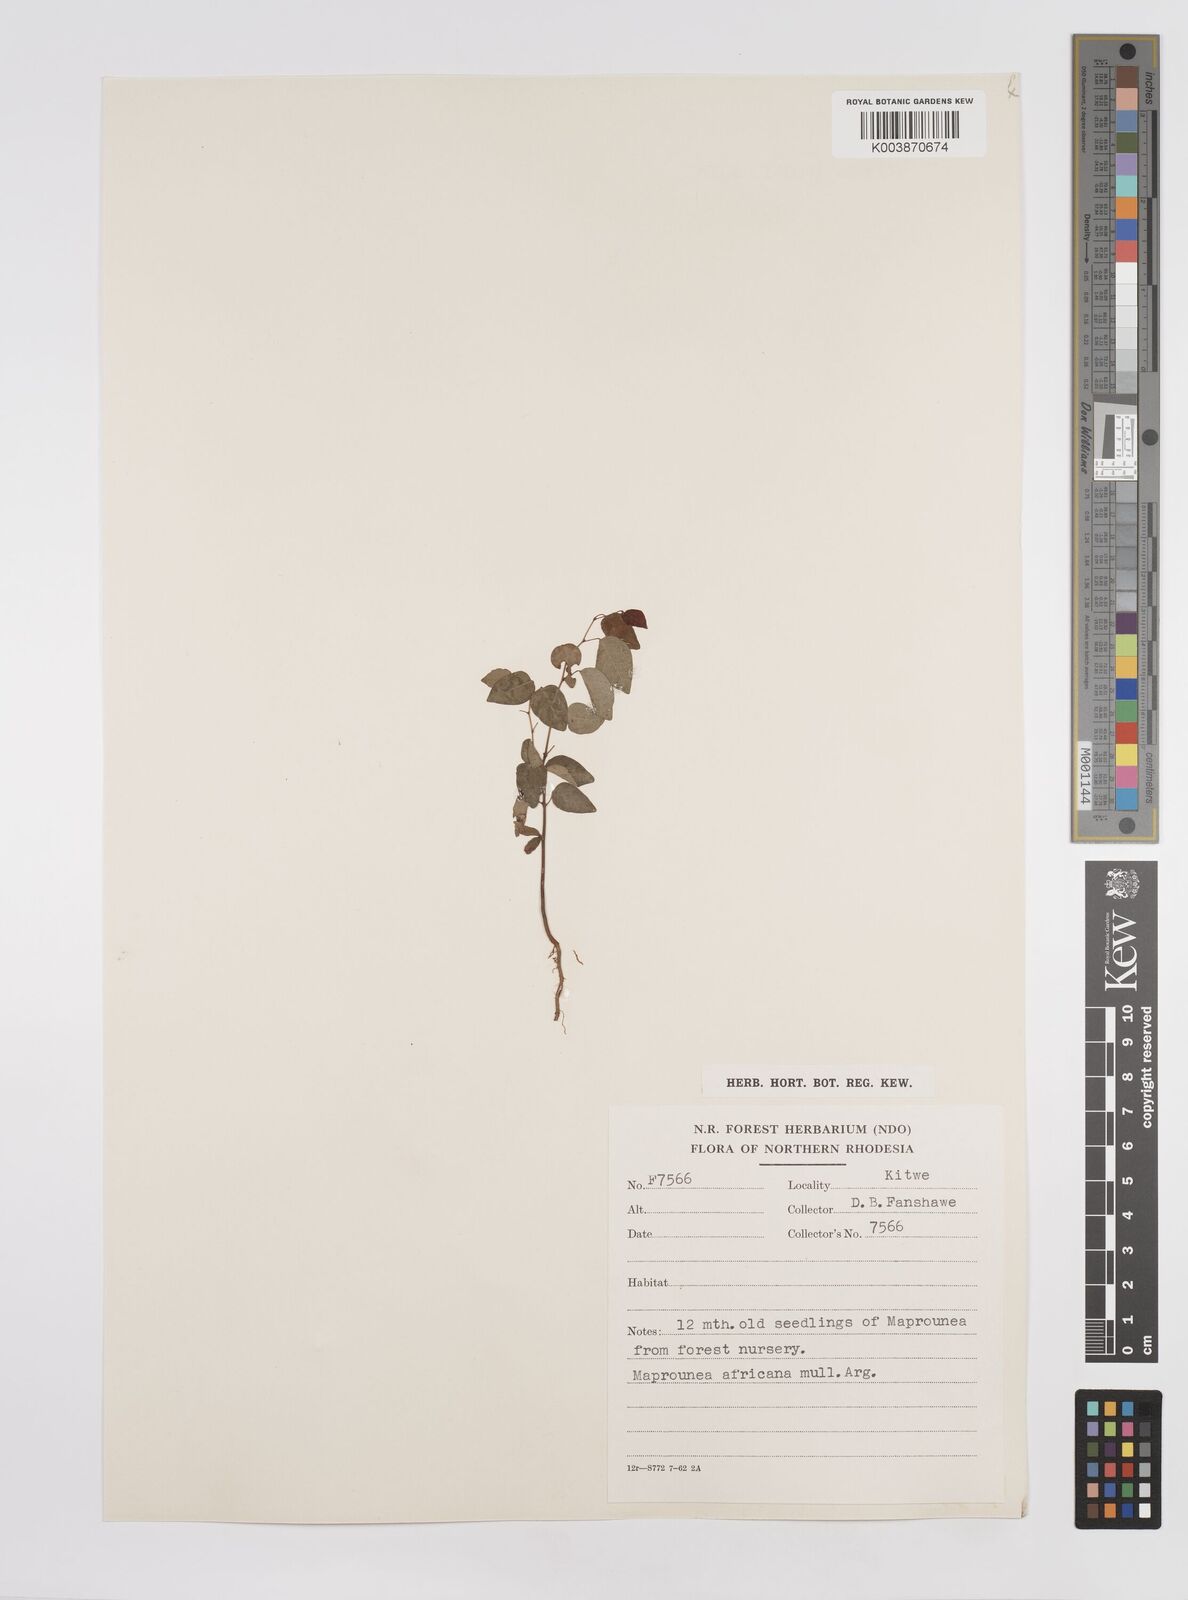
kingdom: Plantae
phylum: Tracheophyta
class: Magnoliopsida
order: Malpighiales
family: Euphorbiaceae
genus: Maprounea
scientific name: Maprounea africana
